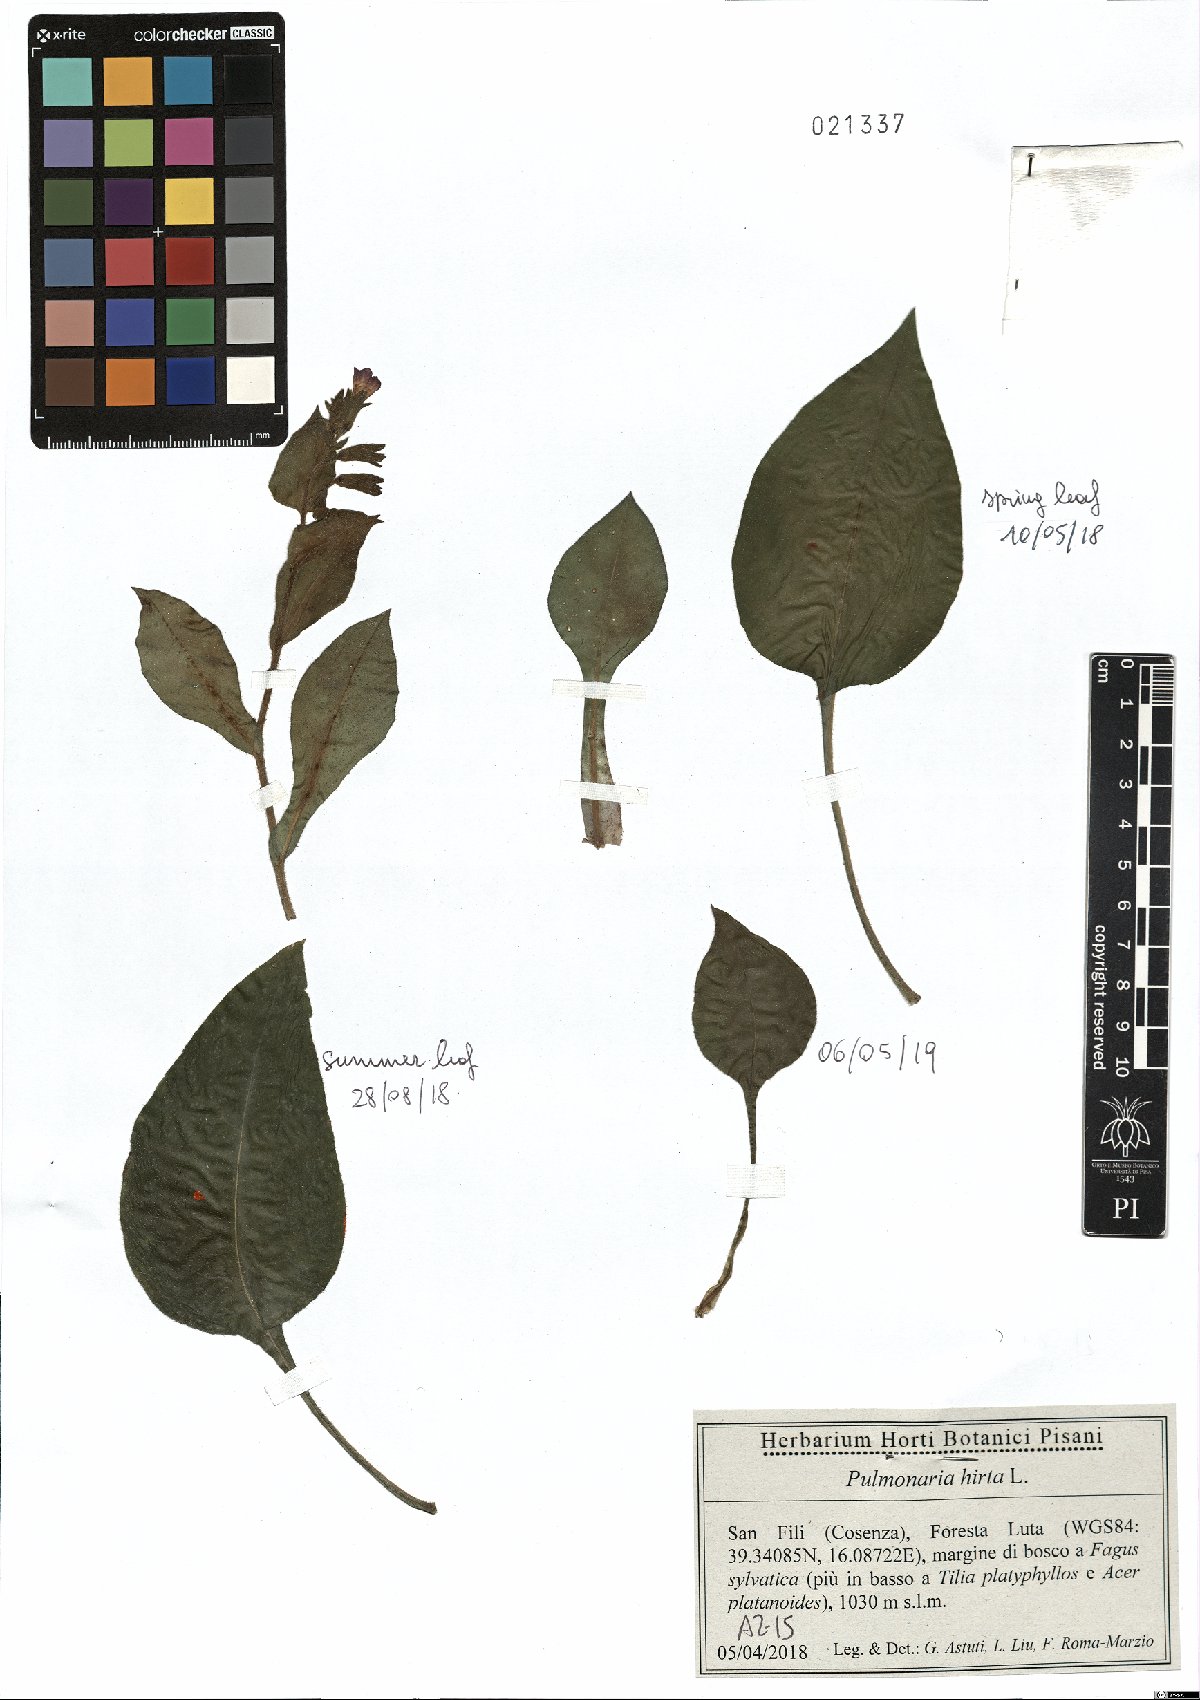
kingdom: Plantae
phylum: Tracheophyta
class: Magnoliopsida
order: Boraginales
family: Boraginaceae
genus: Pulmonaria
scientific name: Pulmonaria hirta
